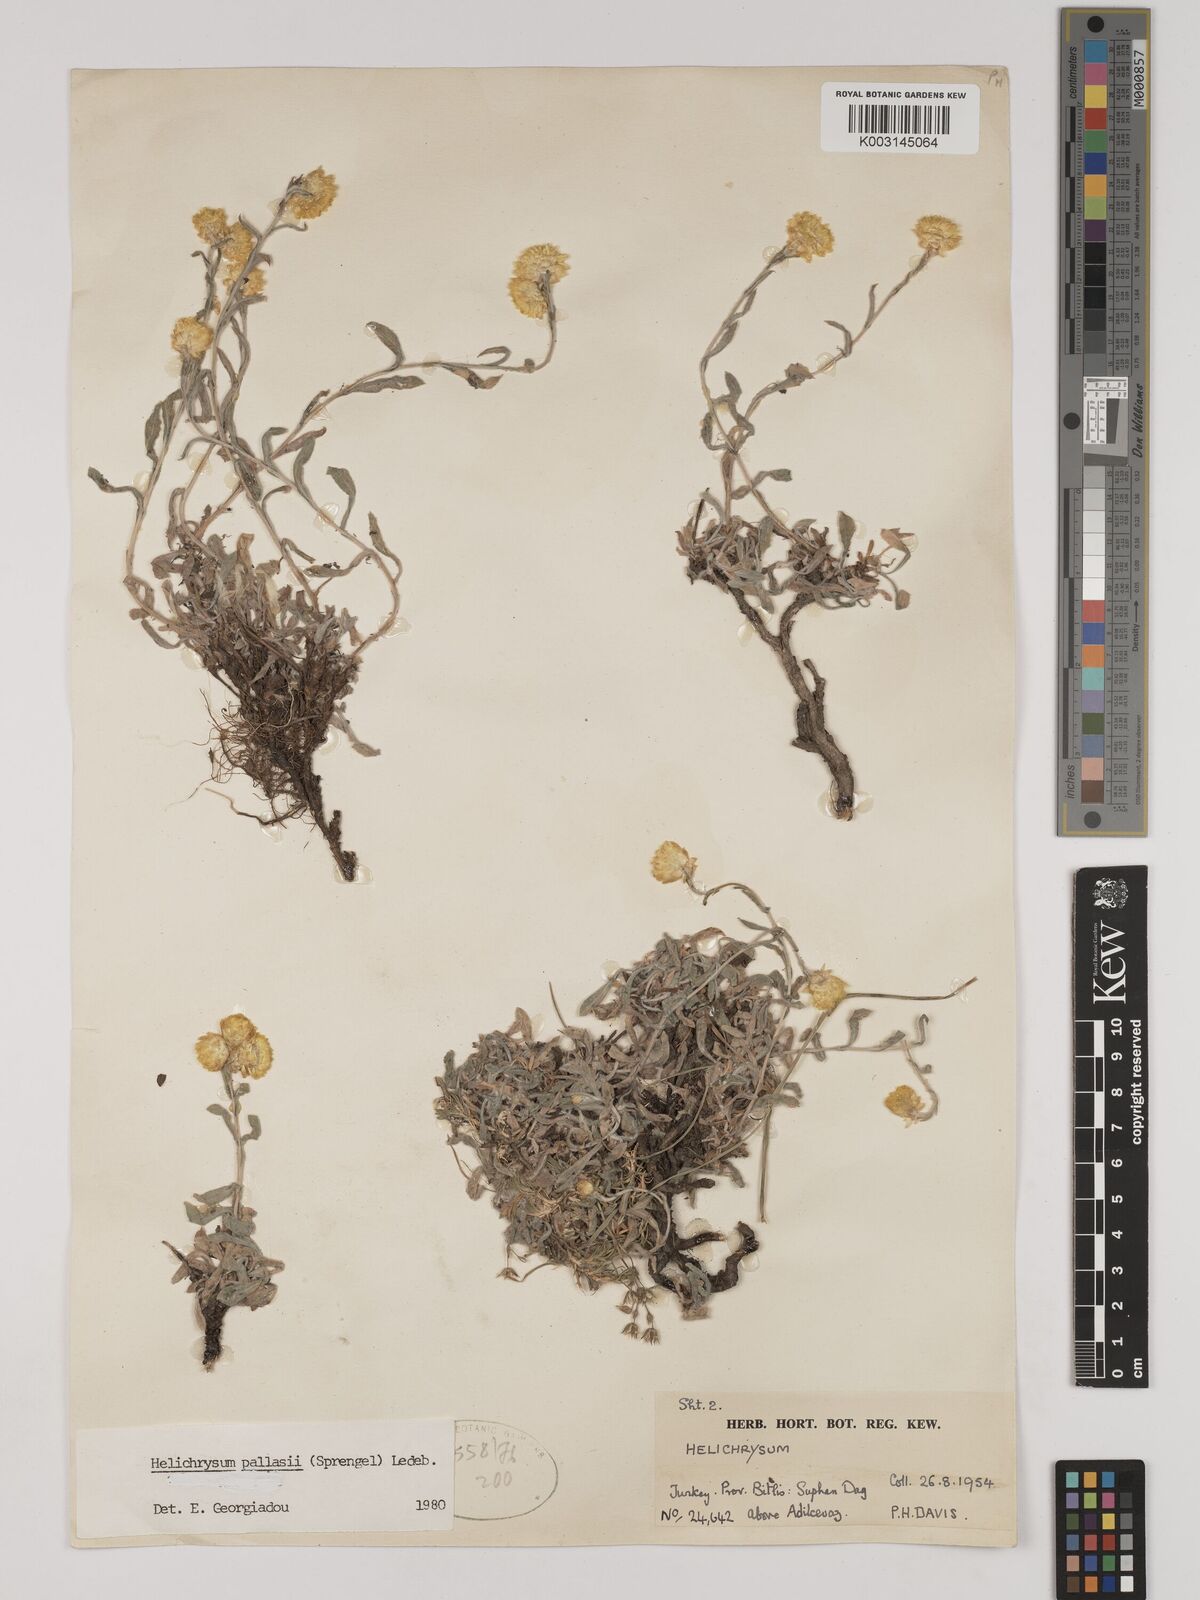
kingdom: Plantae
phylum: Tracheophyta
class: Magnoliopsida
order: Asterales
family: Asteraceae
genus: Helichrysum
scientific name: Helichrysum pallasii
